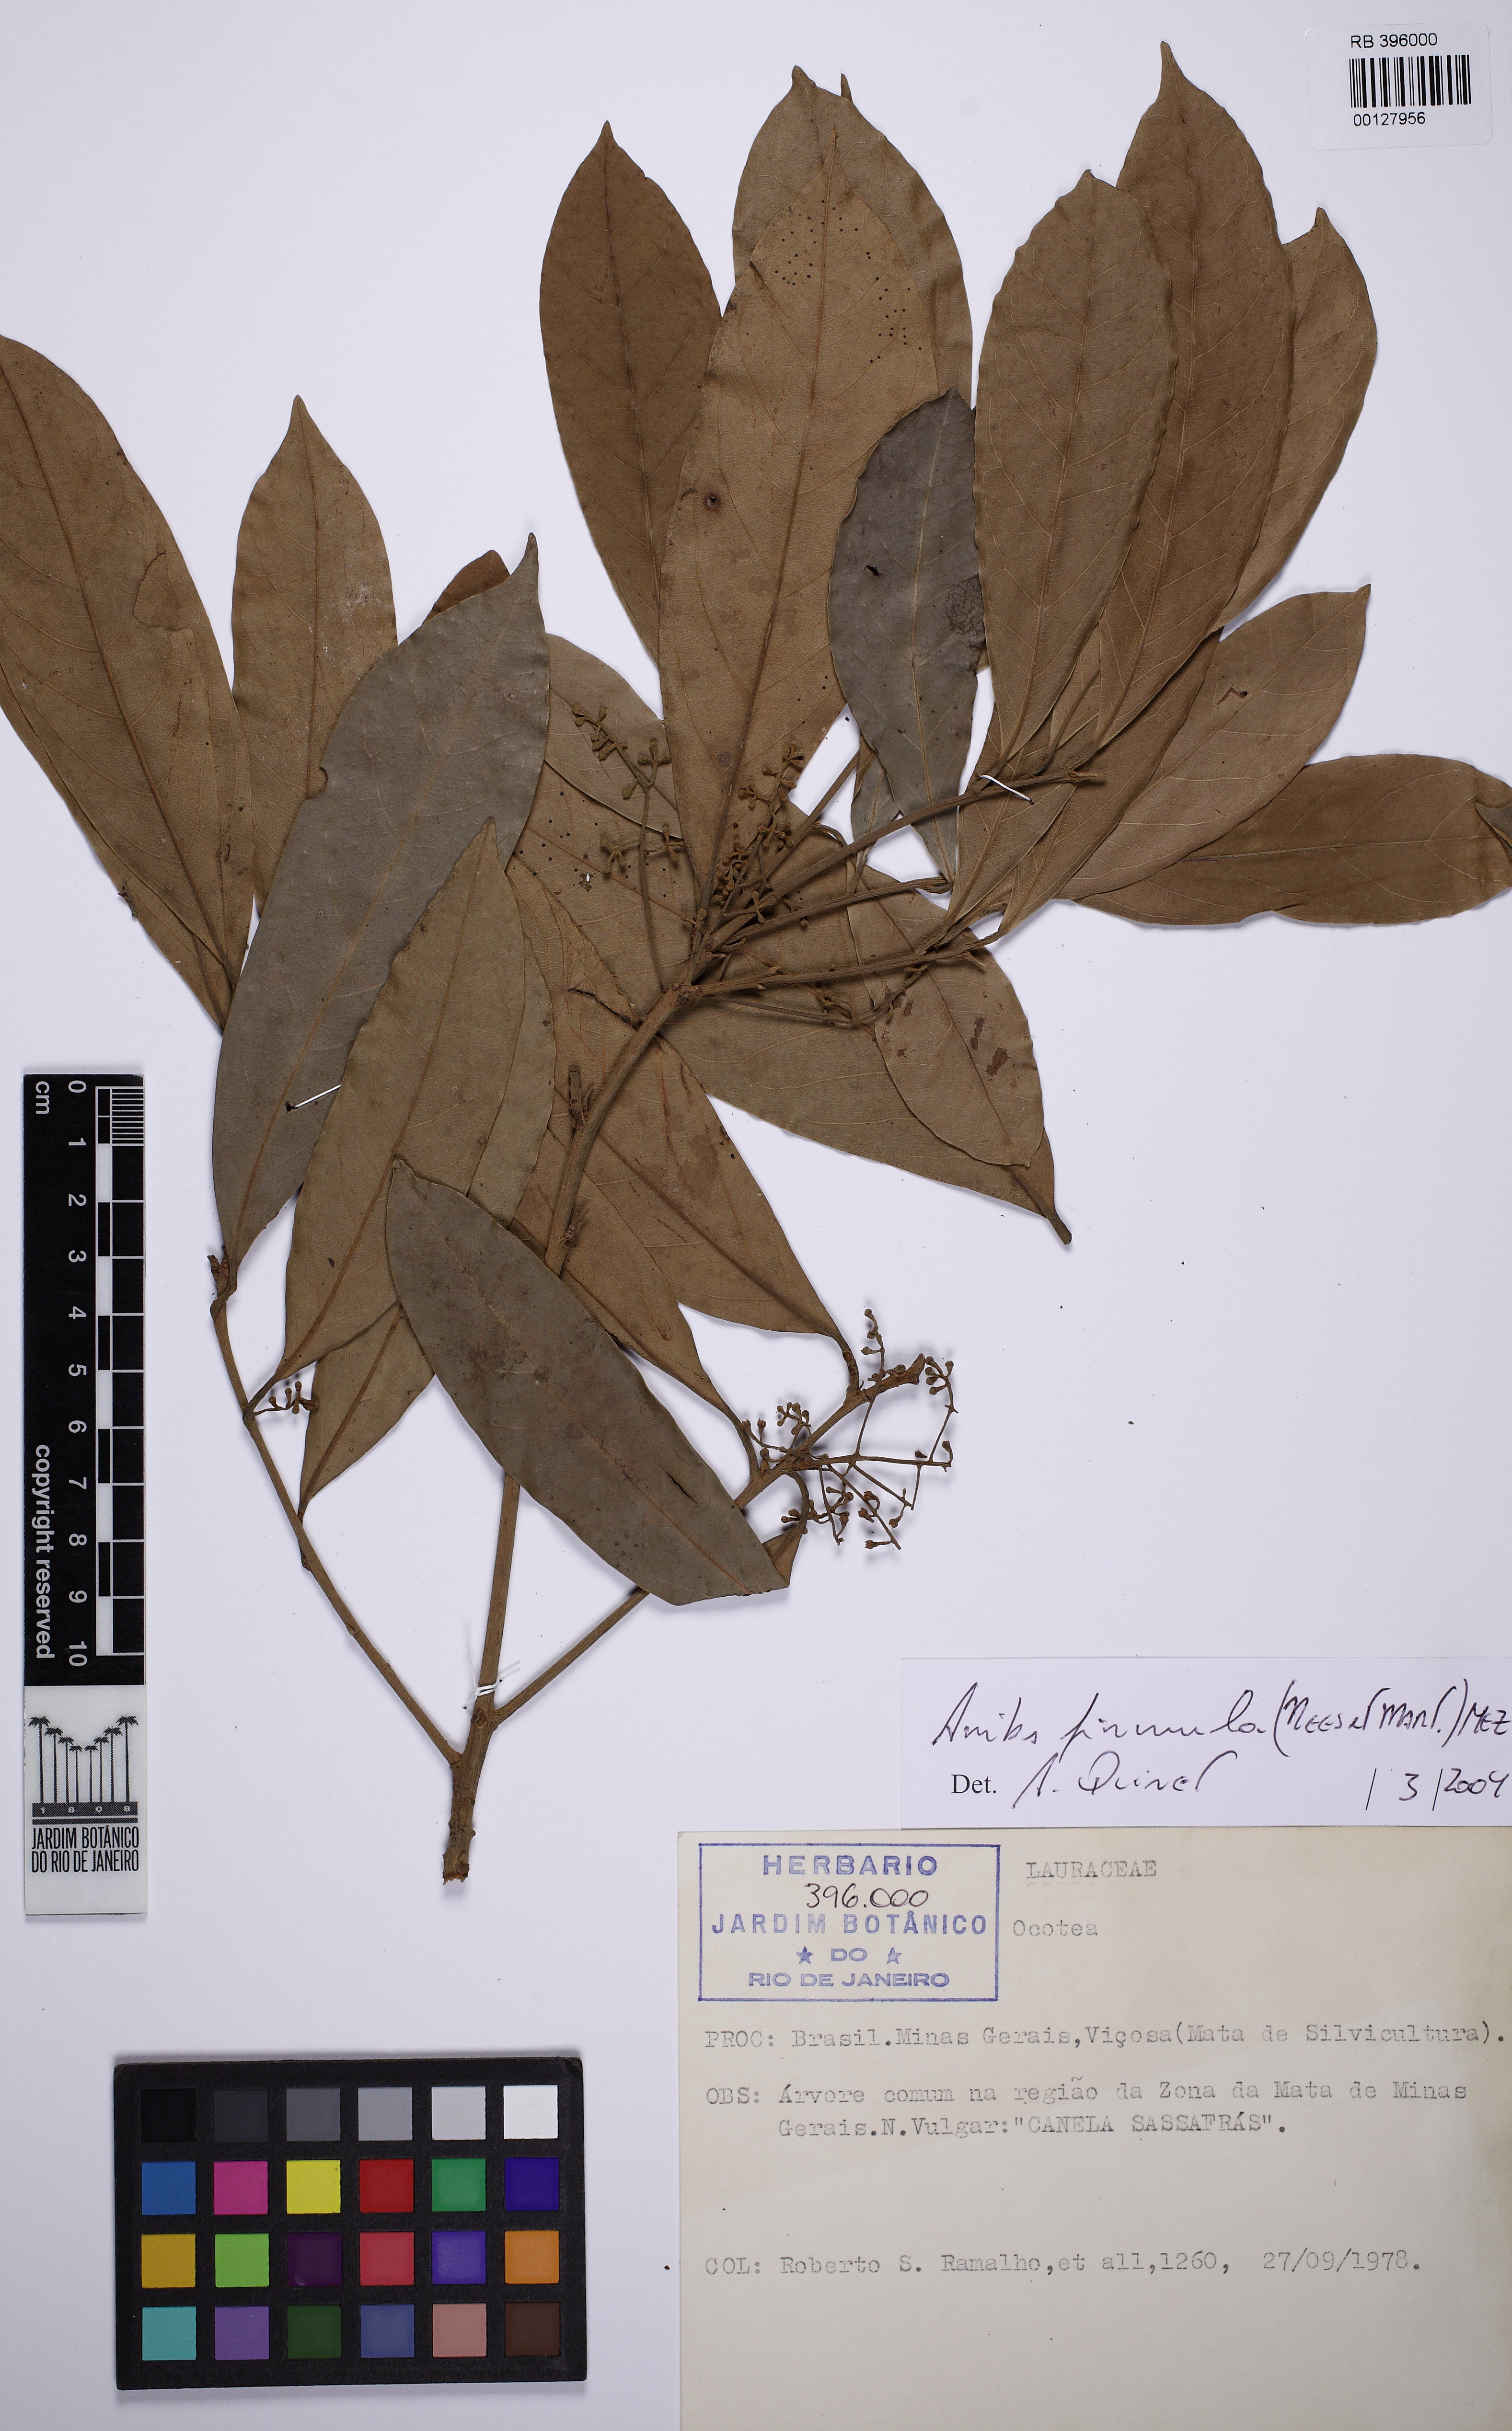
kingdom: Plantae
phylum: Tracheophyta
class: Magnoliopsida
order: Laurales
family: Lauraceae
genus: Aniba
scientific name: Aniba firmula
